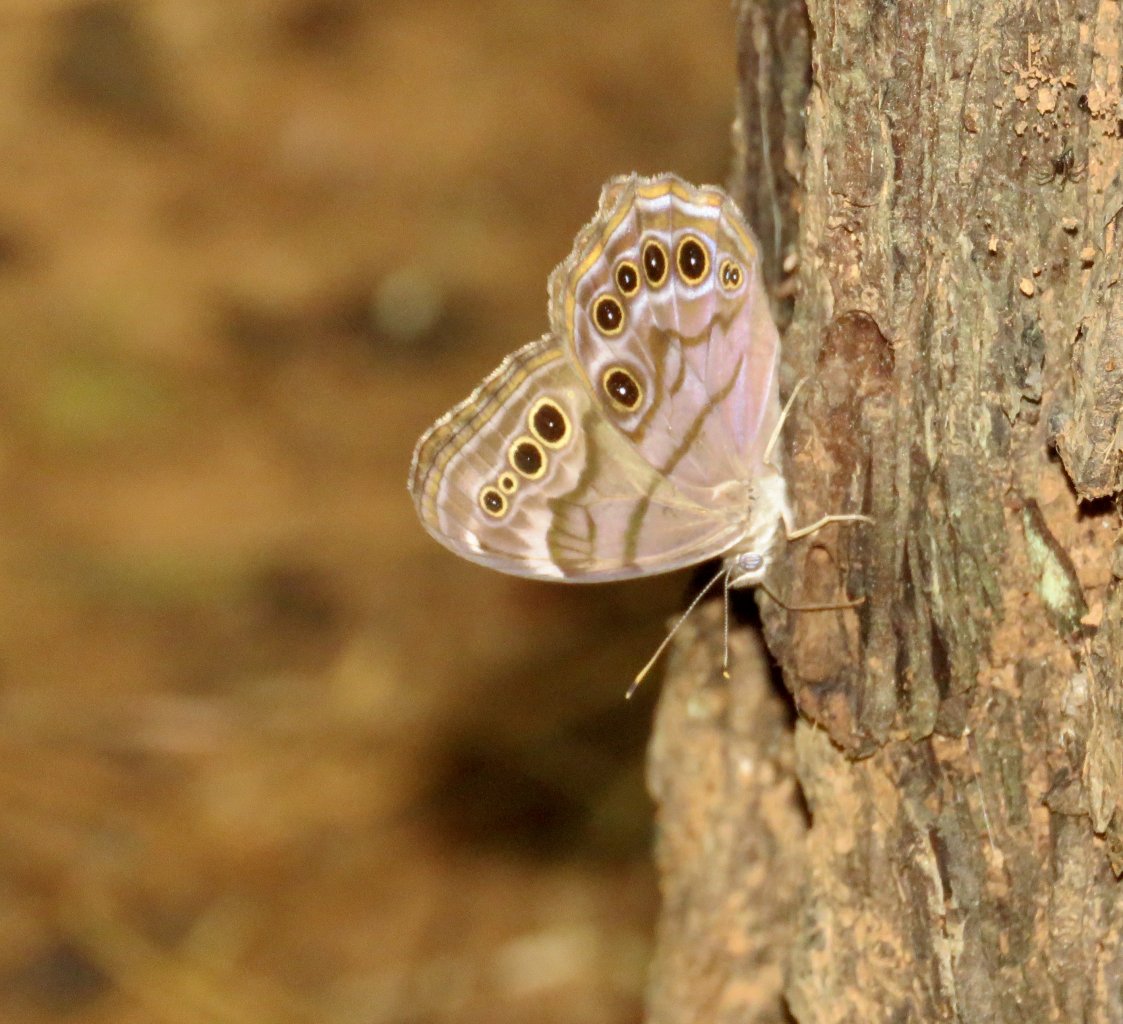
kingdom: Animalia
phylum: Arthropoda
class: Insecta
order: Lepidoptera
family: Nymphalidae
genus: Lethe
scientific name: Lethe anthedon
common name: Northern Pearly-Eye
